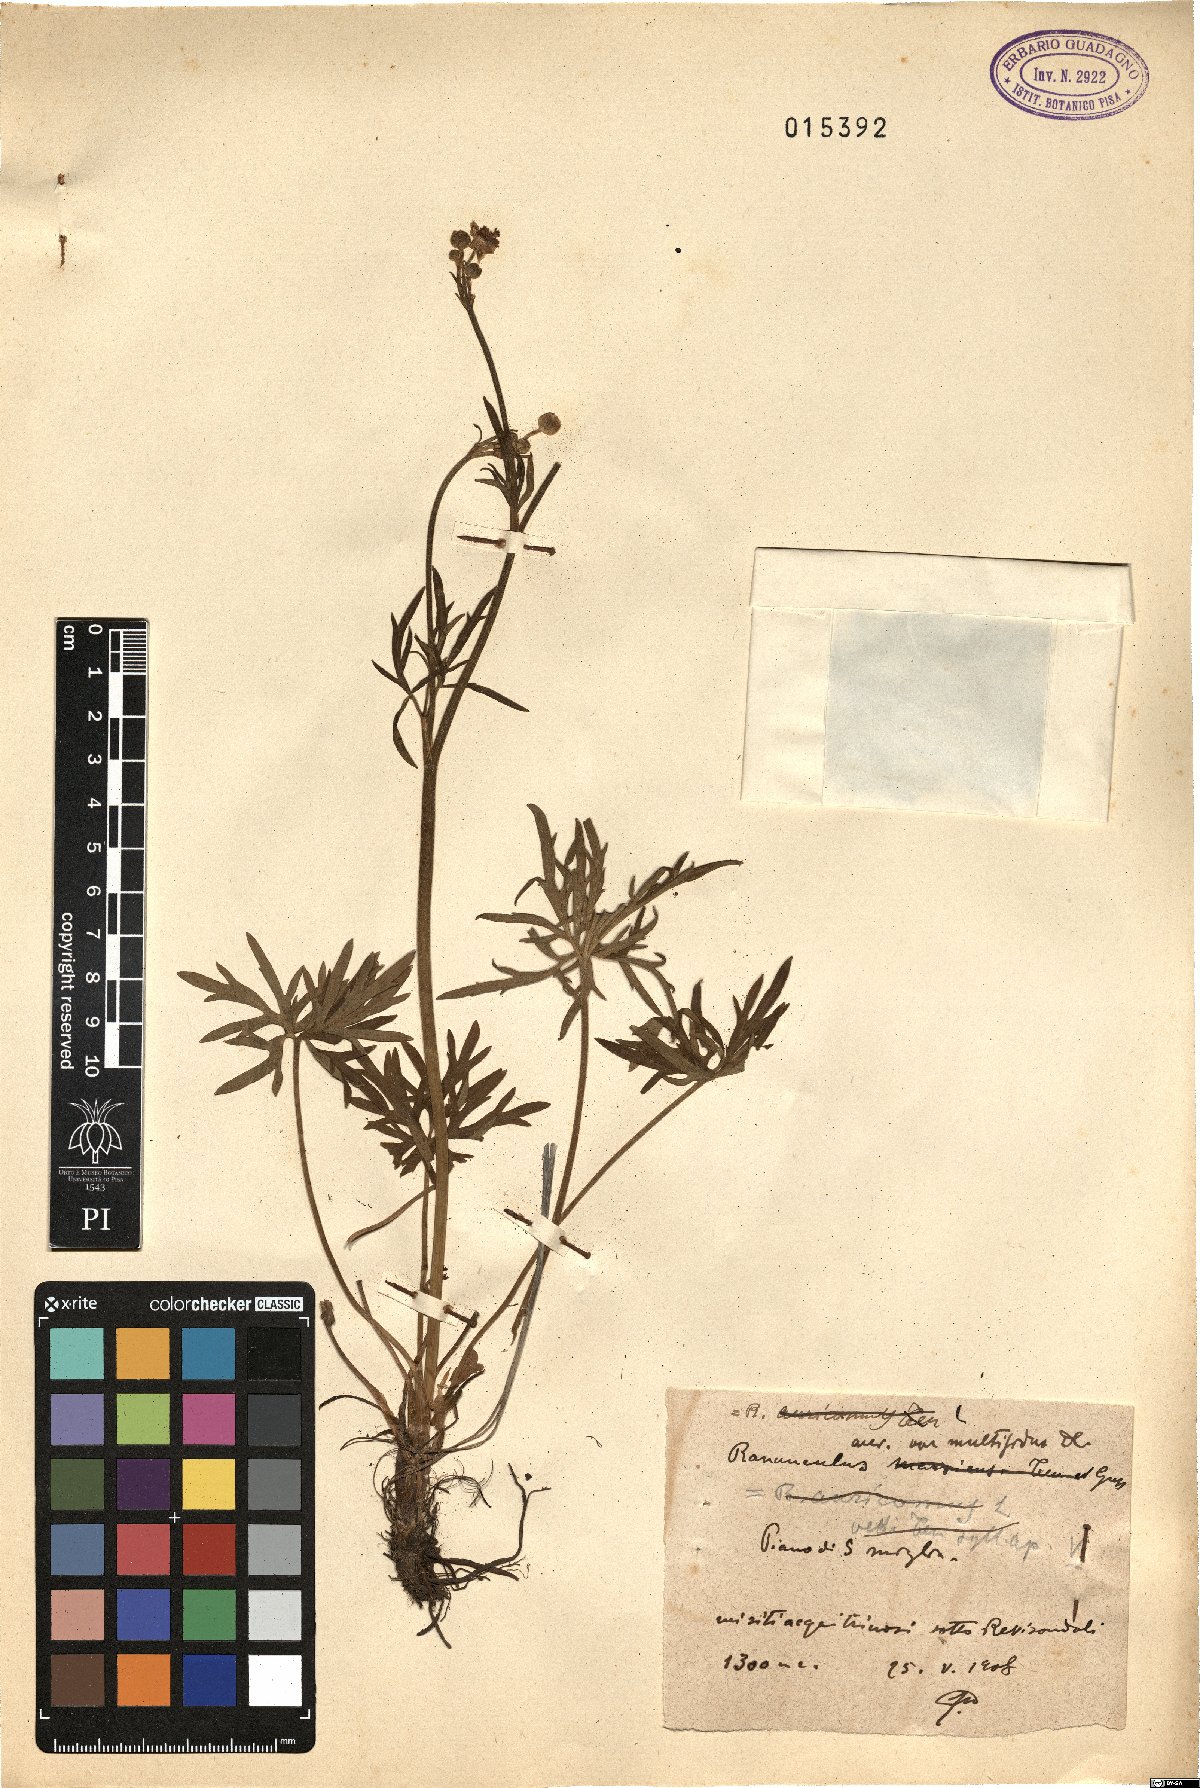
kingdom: Plantae
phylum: Tracheophyta
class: Magnoliopsida
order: Ranunculales
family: Ranunculaceae
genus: Ranunculus
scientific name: Ranunculus acris
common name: Meadow buttercup
